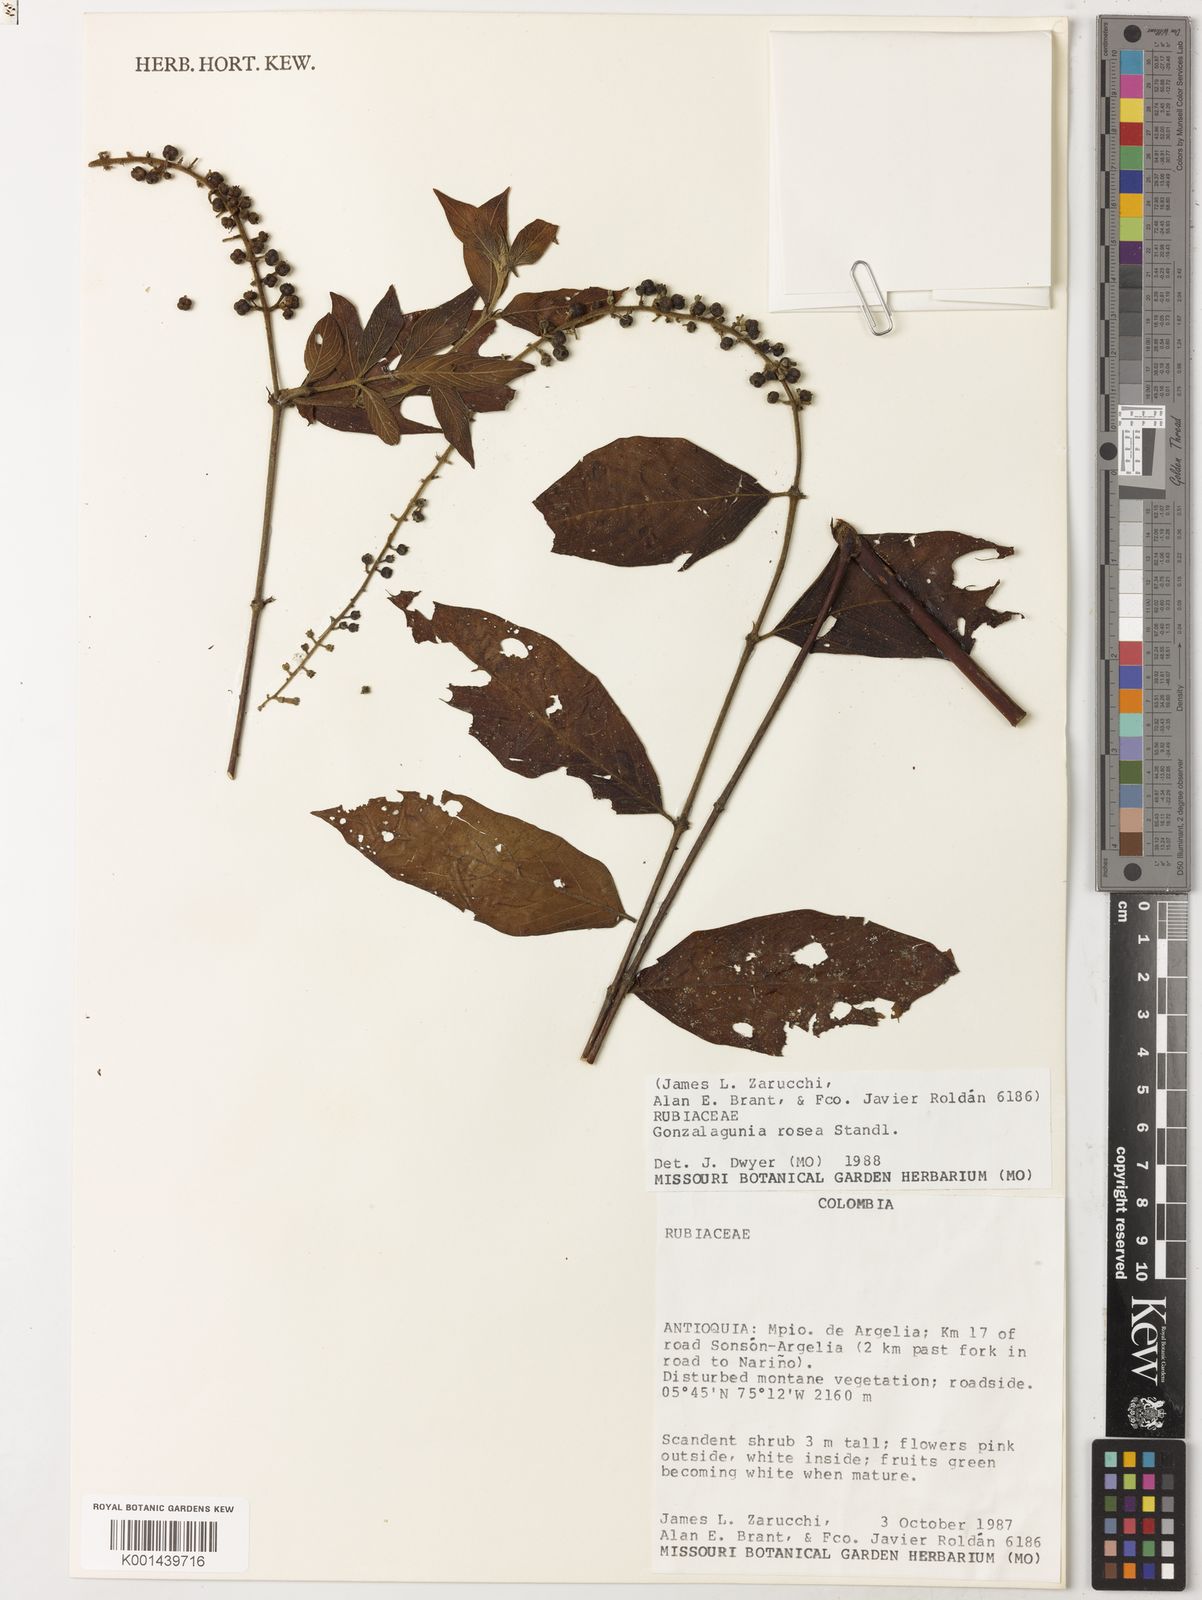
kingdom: Plantae
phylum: Tracheophyta
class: Magnoliopsida
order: Gentianales
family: Rubiaceae
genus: Gonzalagunia
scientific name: Gonzalagunia rosea
